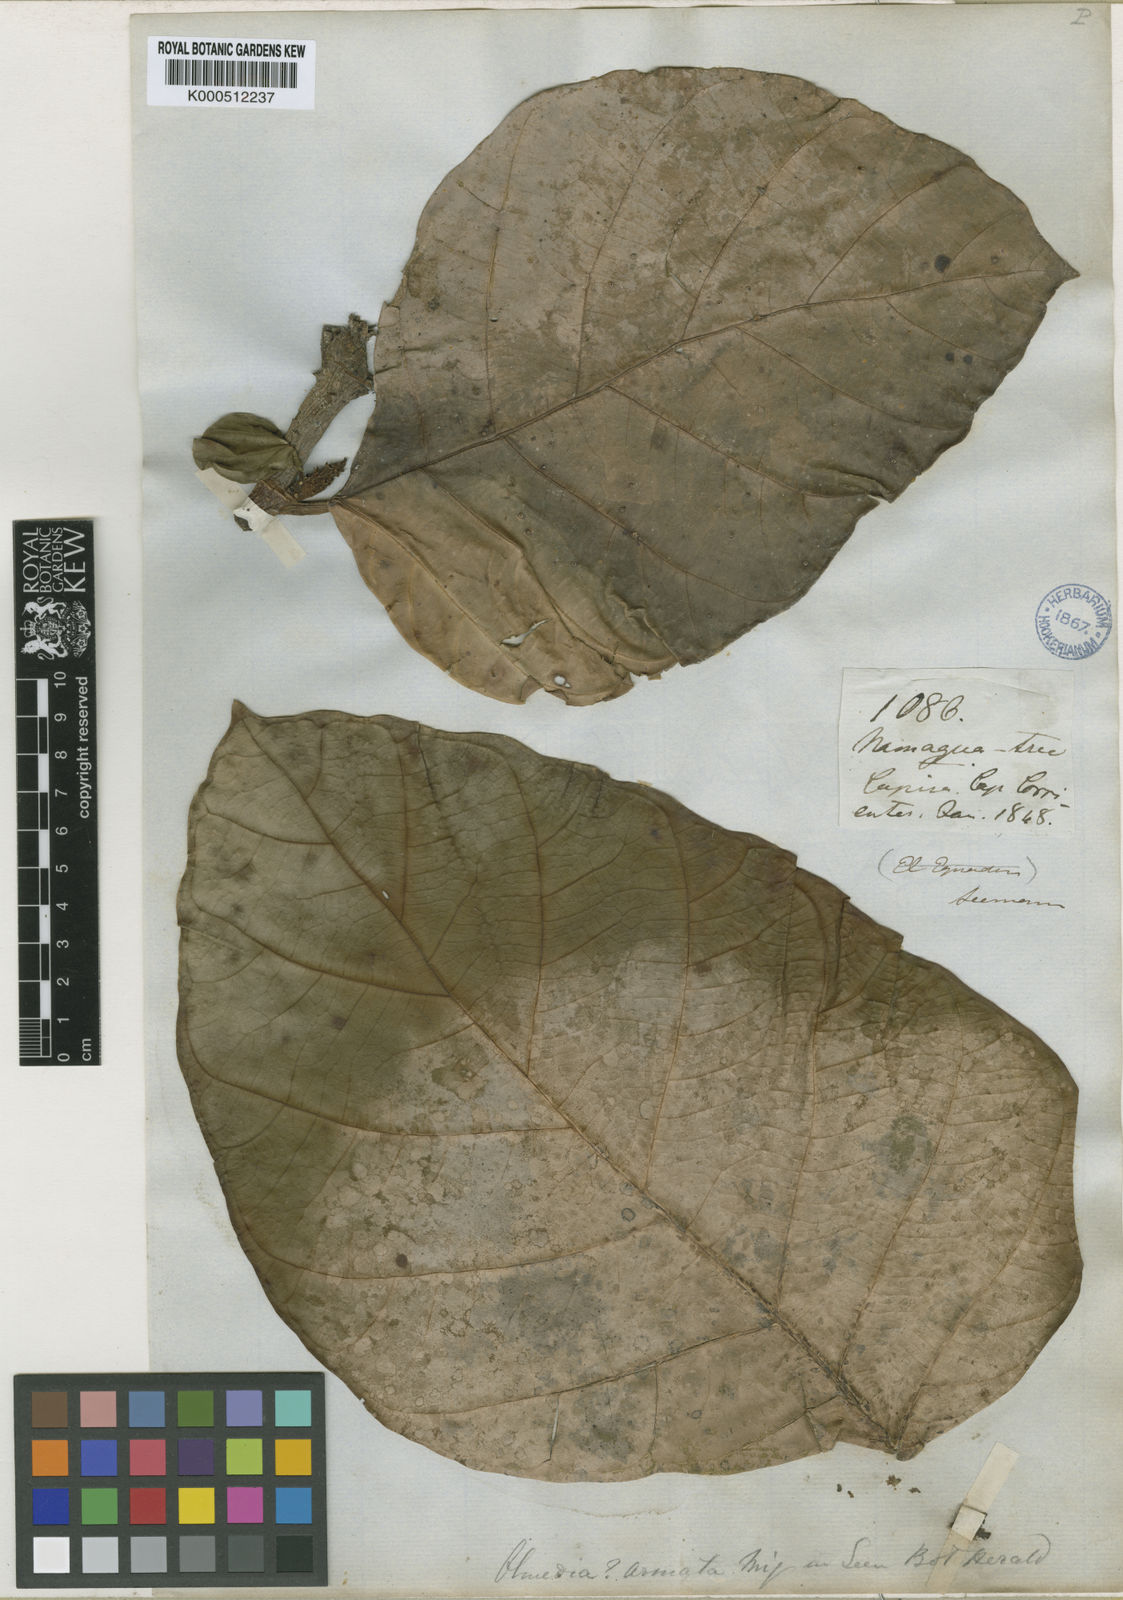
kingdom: Plantae
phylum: Tracheophyta
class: Magnoliopsida
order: Rosales
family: Moraceae
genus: Poulsenia
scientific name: Poulsenia armata
